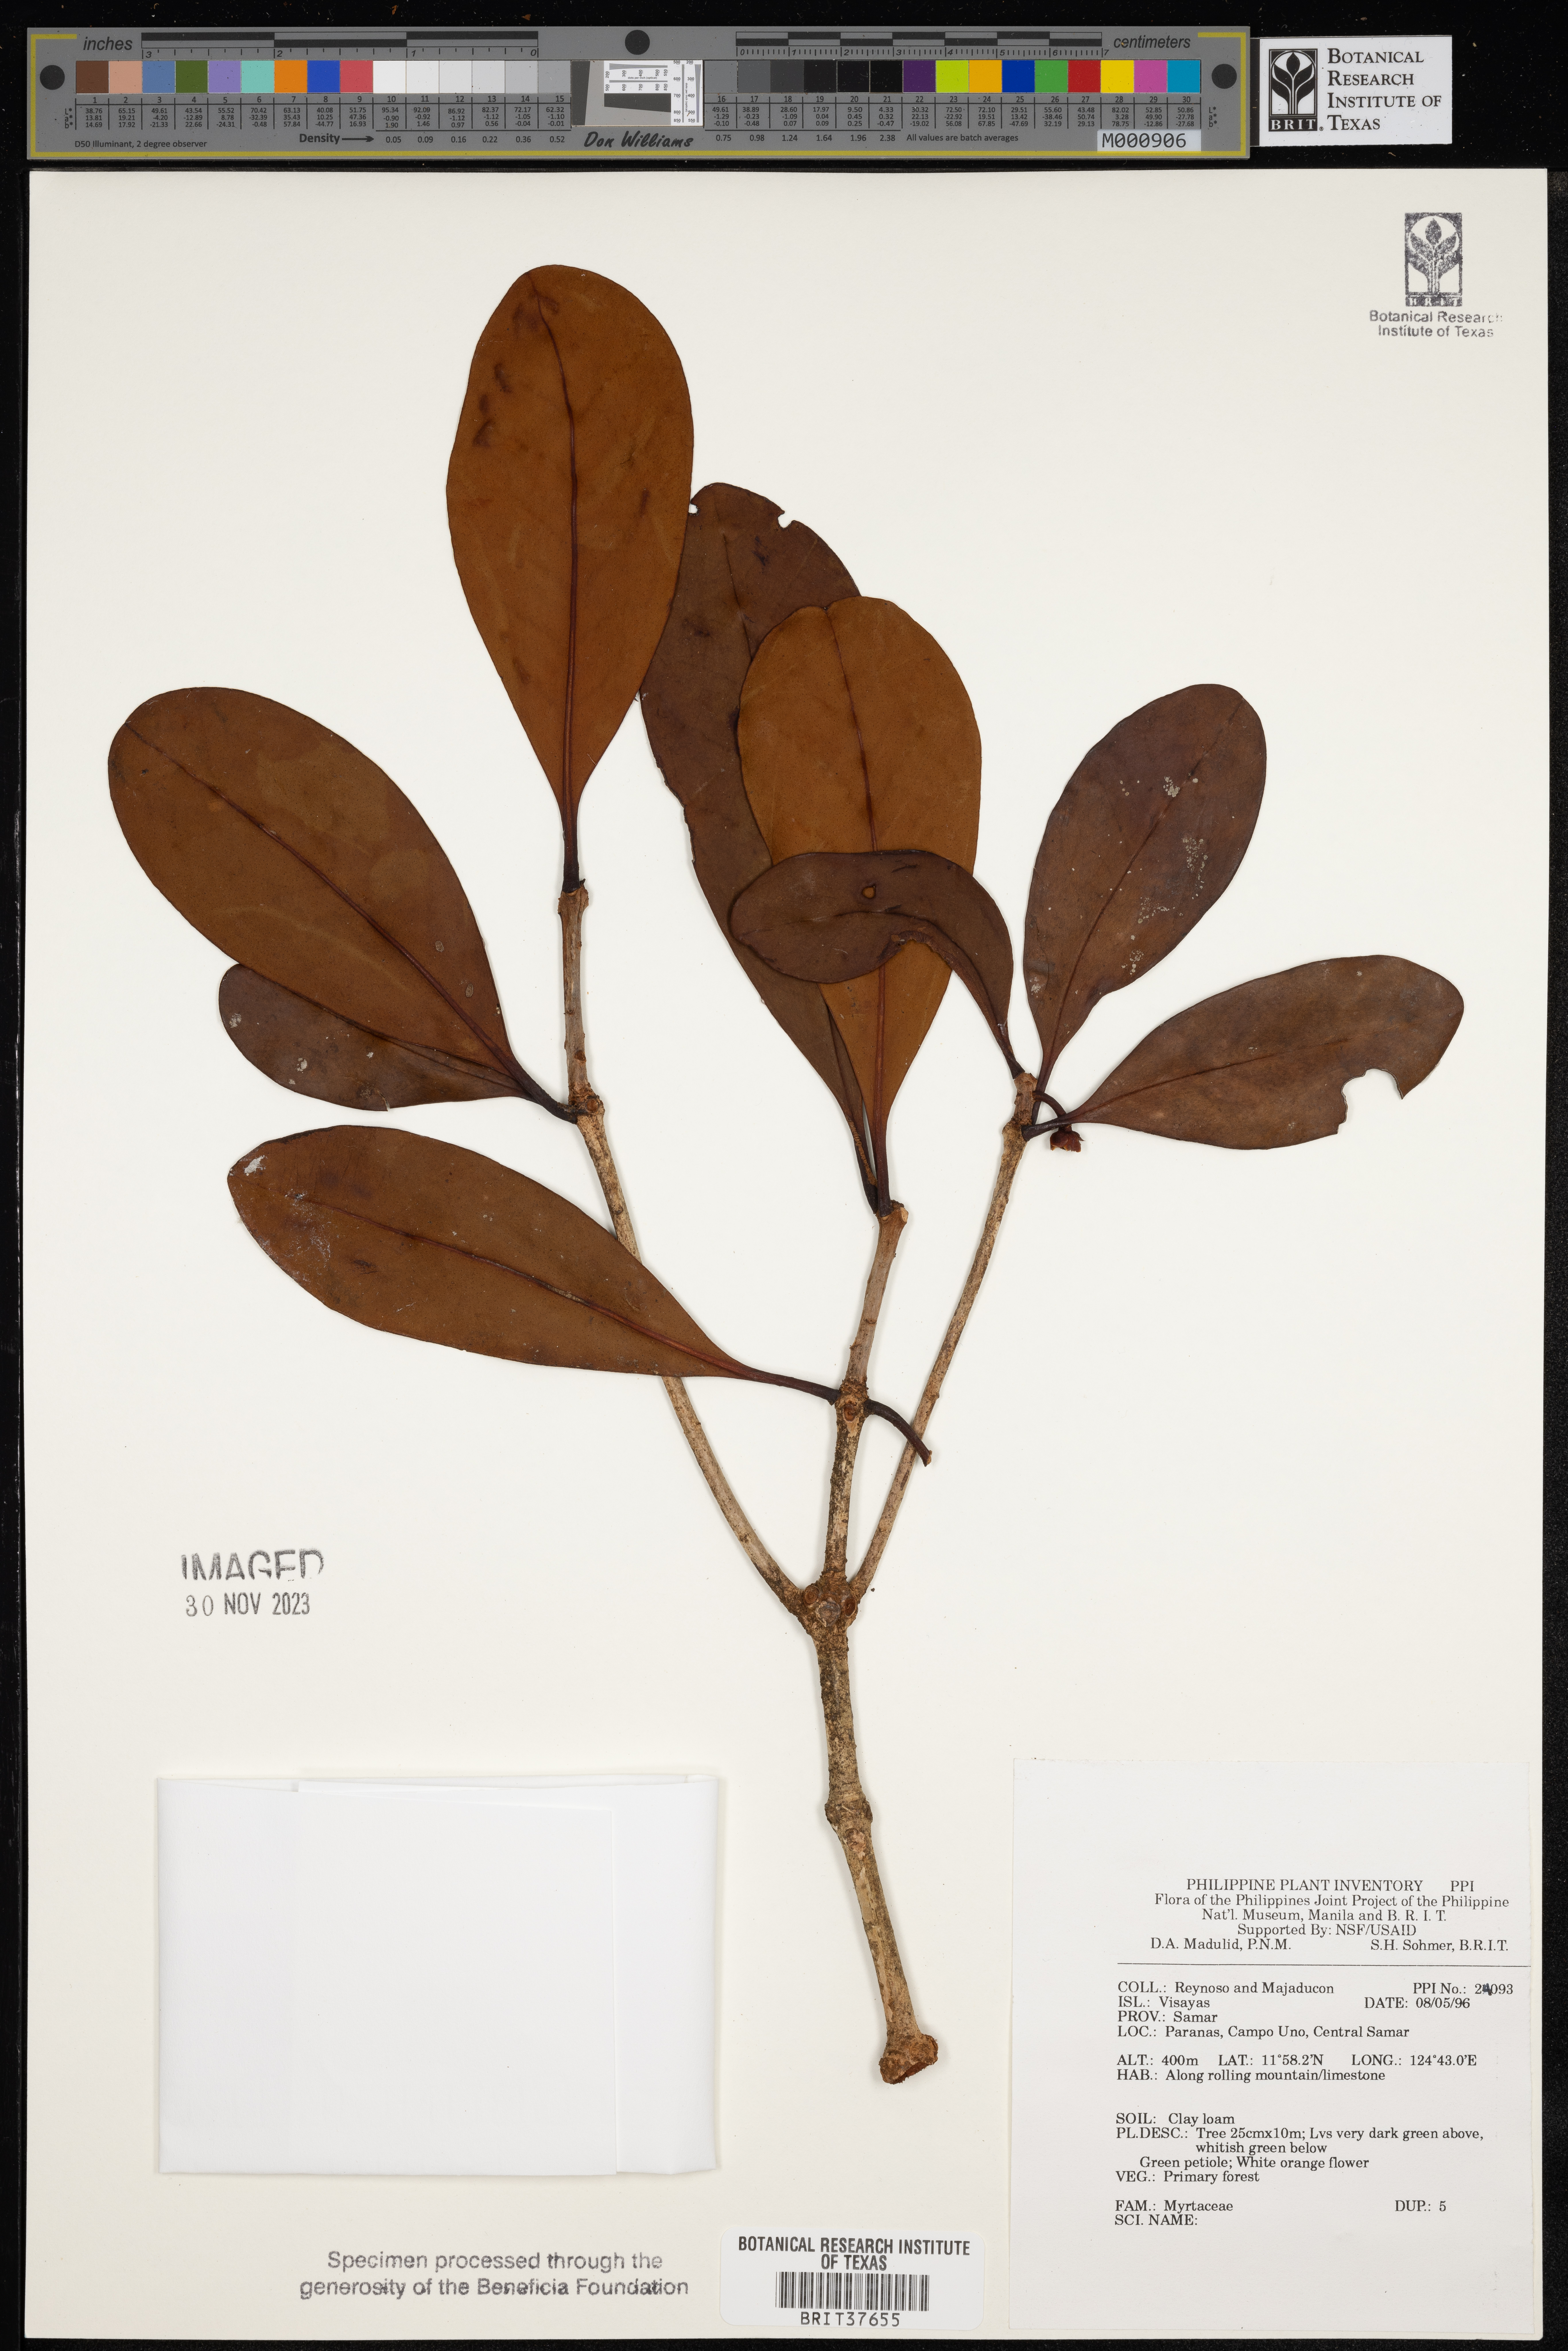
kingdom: Plantae
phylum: Tracheophyta
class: Magnoliopsida
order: Myrtales
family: Myrtaceae
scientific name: Myrtaceae
